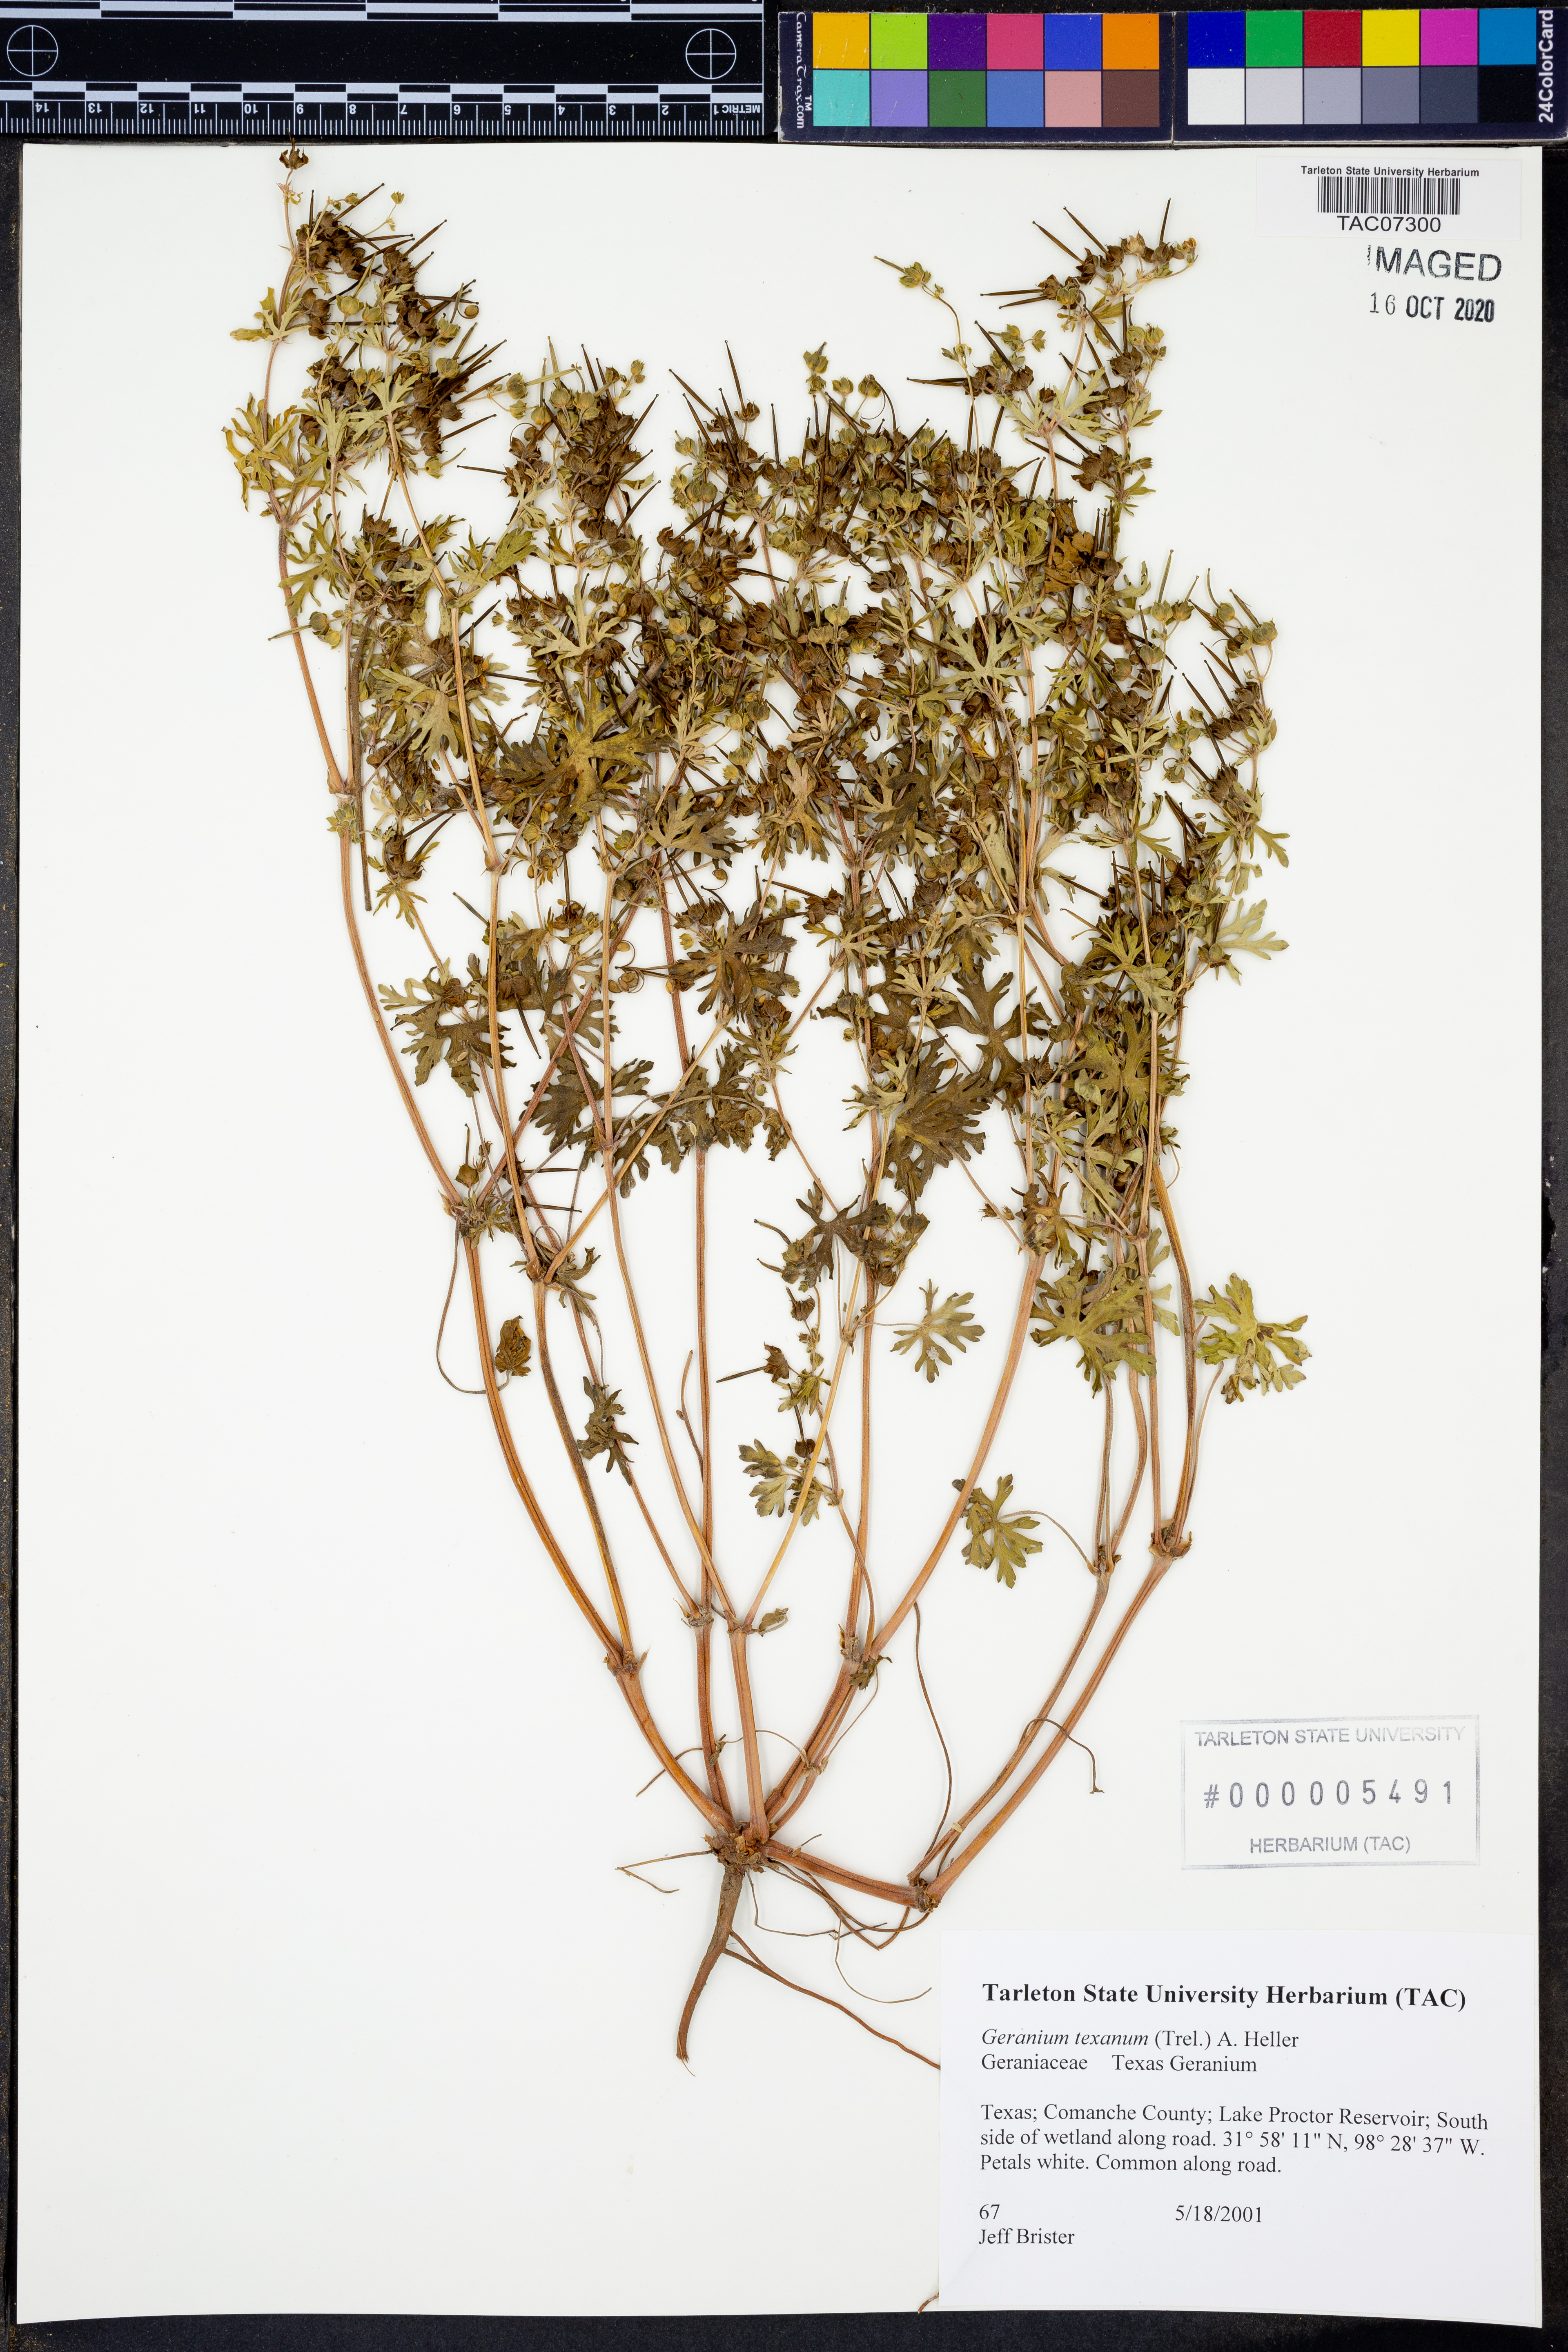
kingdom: Plantae
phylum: Tracheophyta
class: Magnoliopsida
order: Geraniales
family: Geraniaceae
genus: Geranium
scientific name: Geranium texanum
